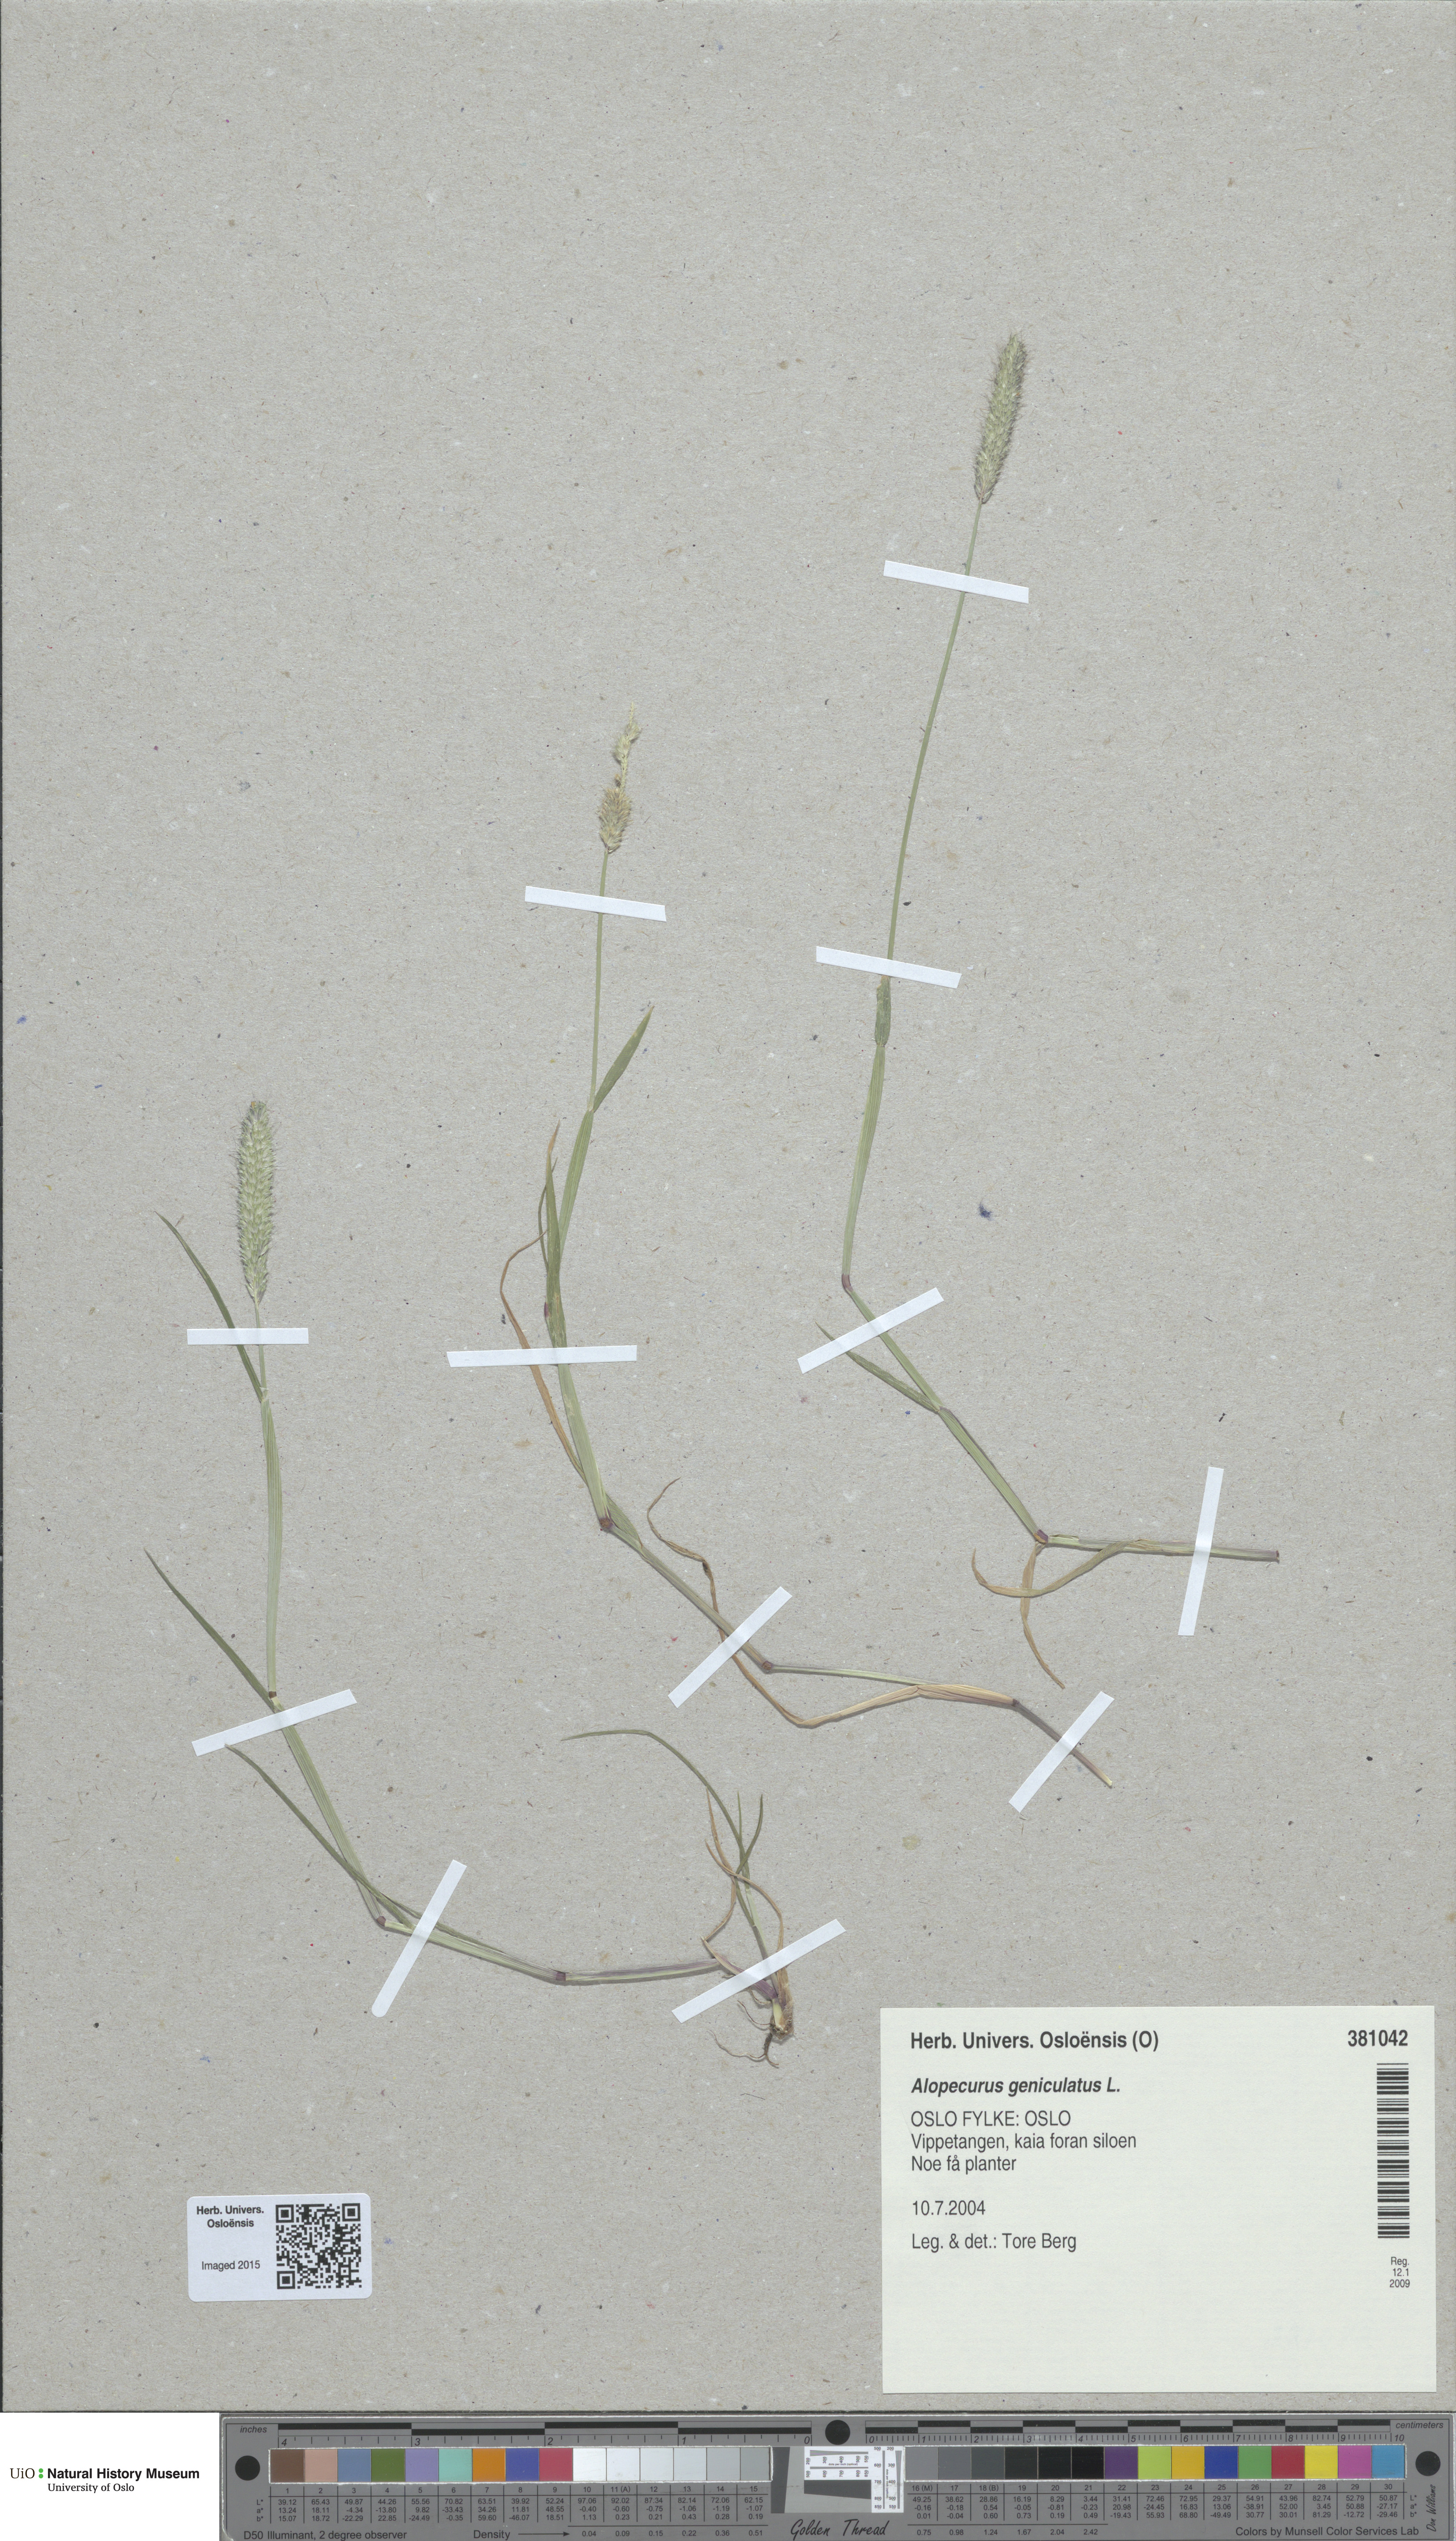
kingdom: Plantae
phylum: Tracheophyta
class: Liliopsida
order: Poales
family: Poaceae
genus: Alopecurus
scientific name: Alopecurus geniculatus
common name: Water foxtail
